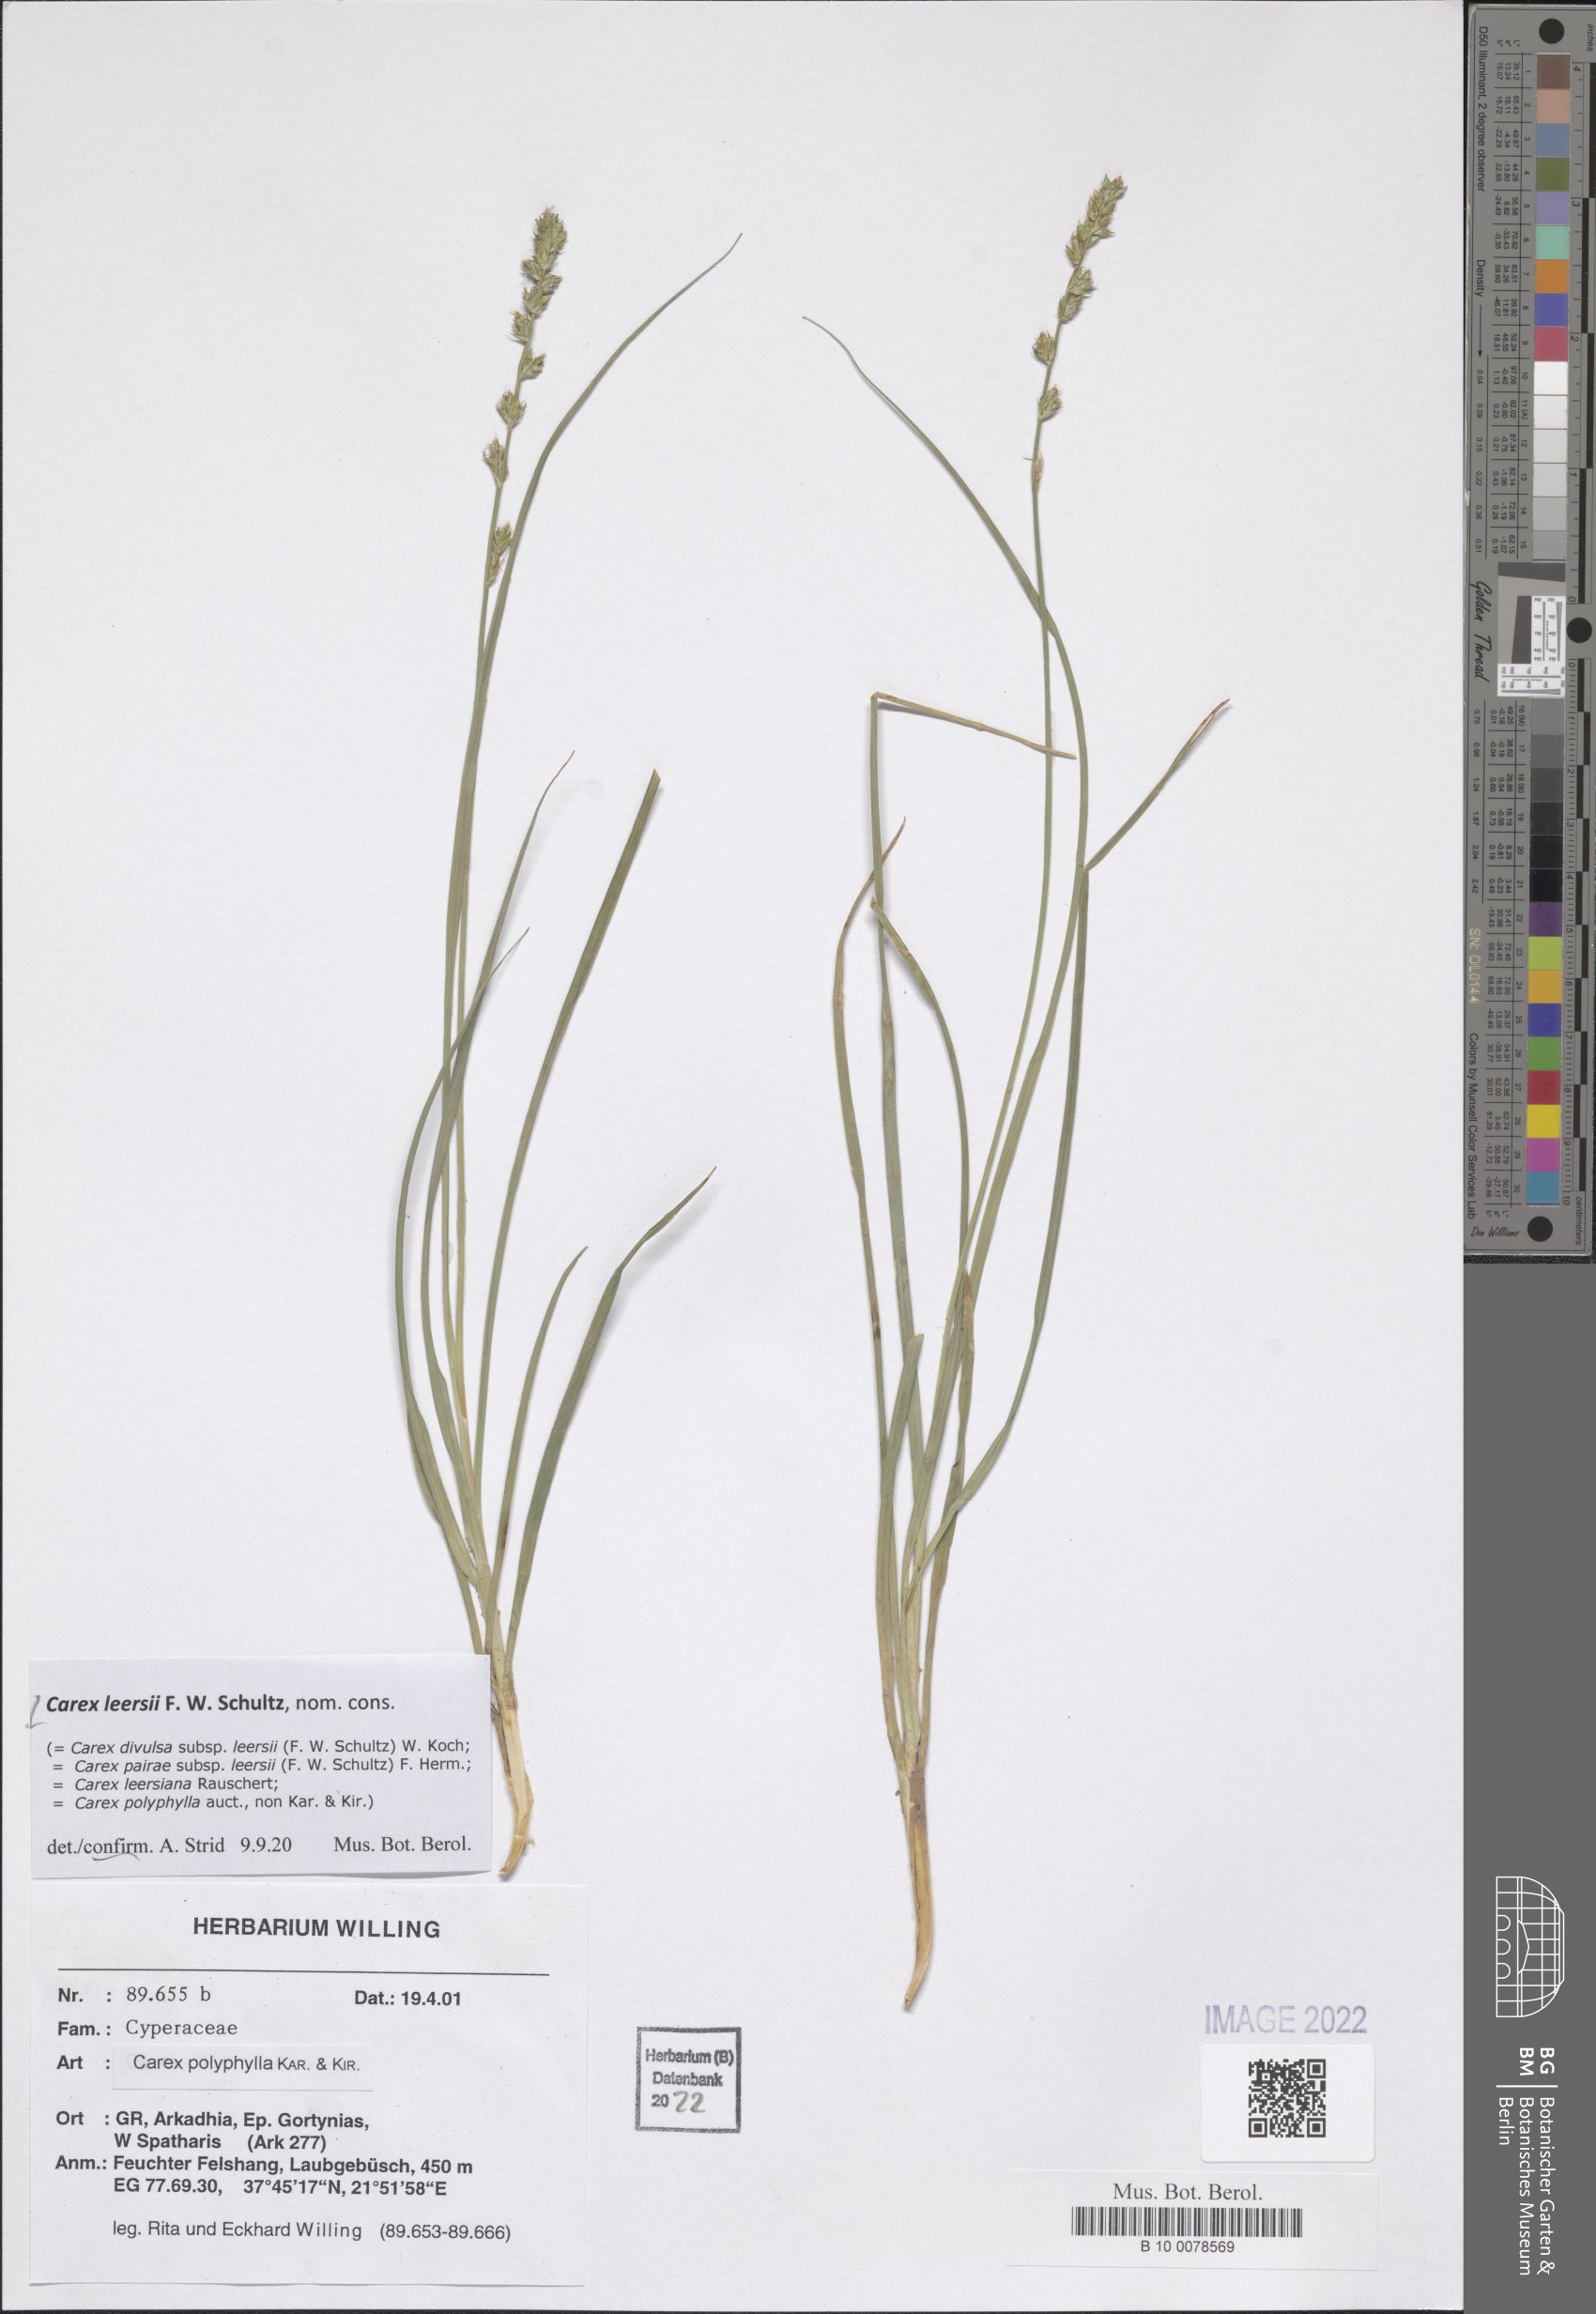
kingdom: Plantae
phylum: Tracheophyta
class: Liliopsida
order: Poales
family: Cyperaceae
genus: Carex
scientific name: Carex leersii
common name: Leers' sedge
